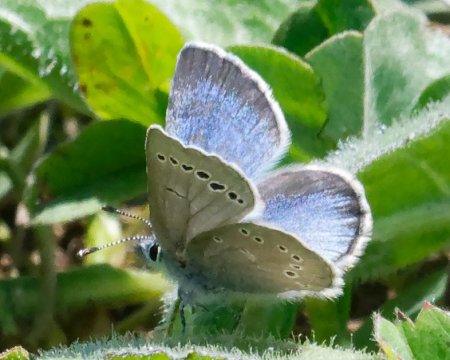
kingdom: Animalia
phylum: Arthropoda
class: Insecta
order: Lepidoptera
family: Lycaenidae
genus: Glaucopsyche
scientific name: Glaucopsyche lygdamus
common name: Silvery Blue
